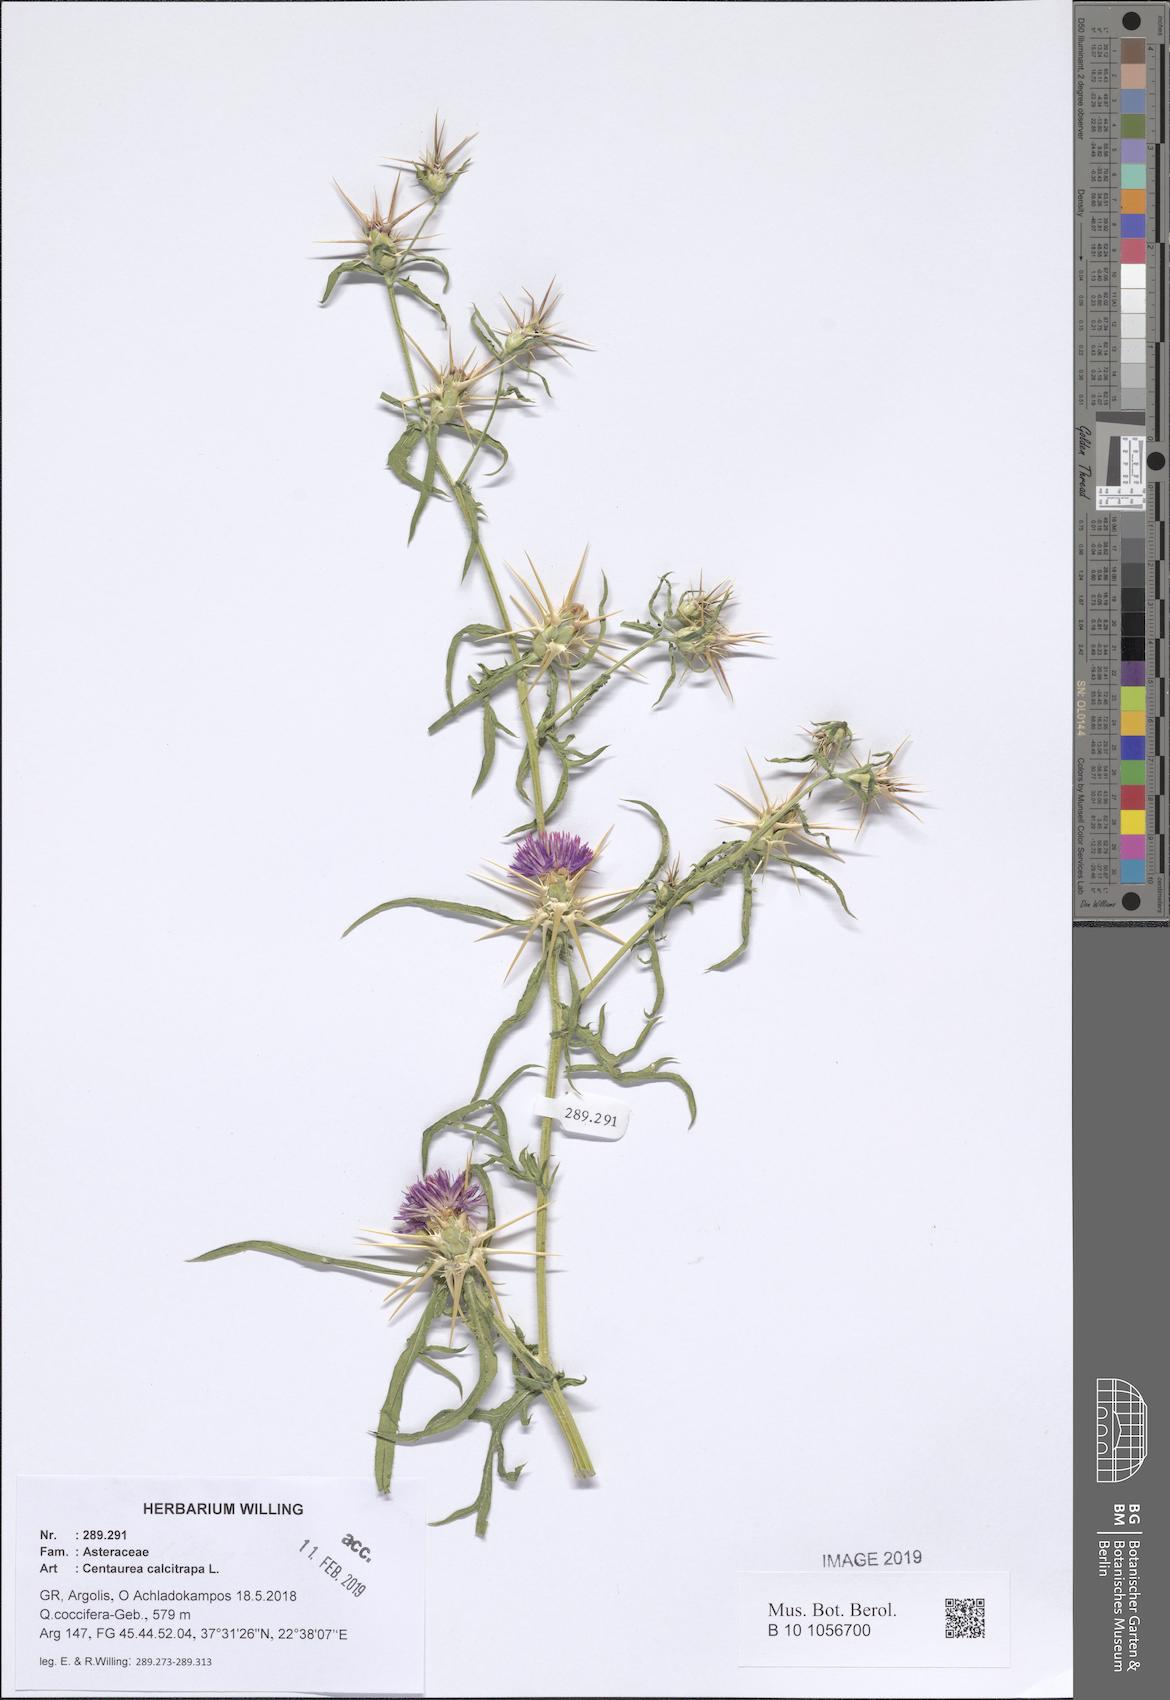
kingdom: Plantae
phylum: Tracheophyta
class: Magnoliopsida
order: Asterales
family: Asteraceae
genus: Centaurea
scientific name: Centaurea calcitrapa
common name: Red star-thistle
